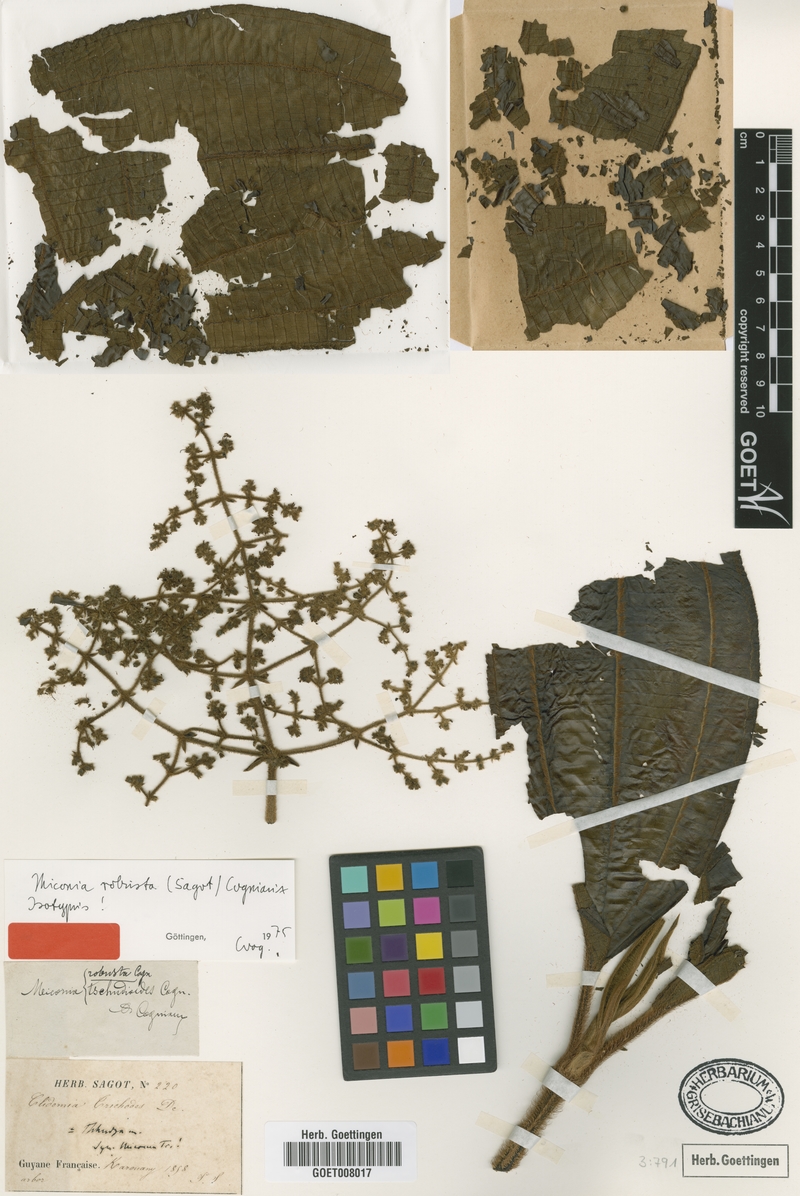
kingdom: Plantae
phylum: Tracheophyta
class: Magnoliopsida
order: Myrtales
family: Melastomataceae
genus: Miconia
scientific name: Miconia robusta
